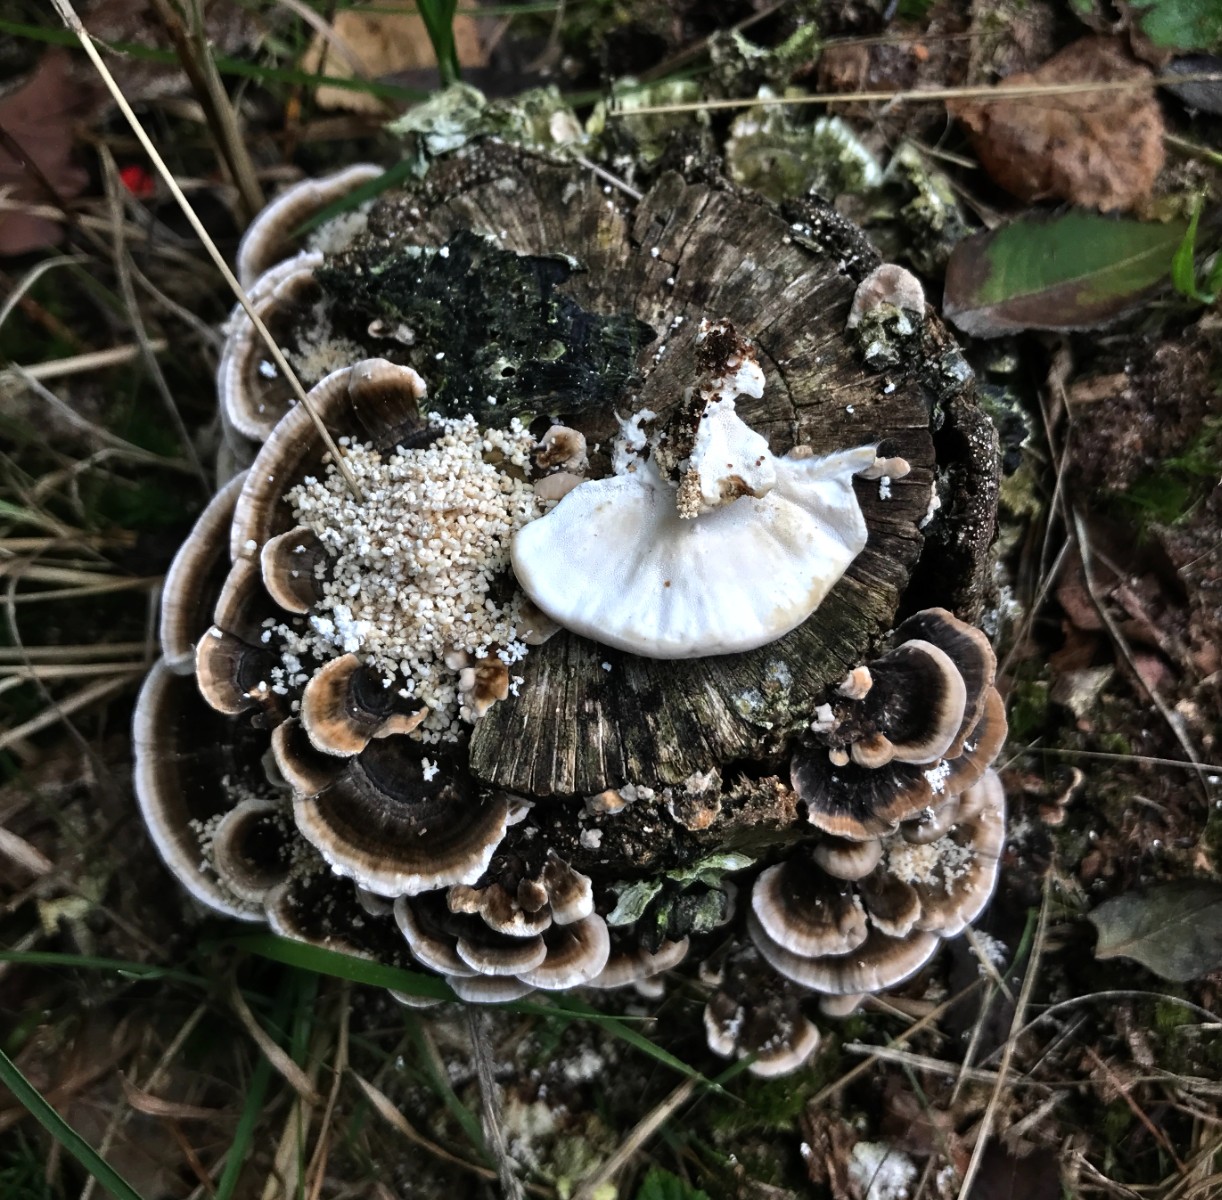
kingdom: Fungi
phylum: Basidiomycota
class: Agaricomycetes
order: Polyporales
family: Polyporaceae
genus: Trametes
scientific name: Trametes versicolor
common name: broget læderporesvamp
